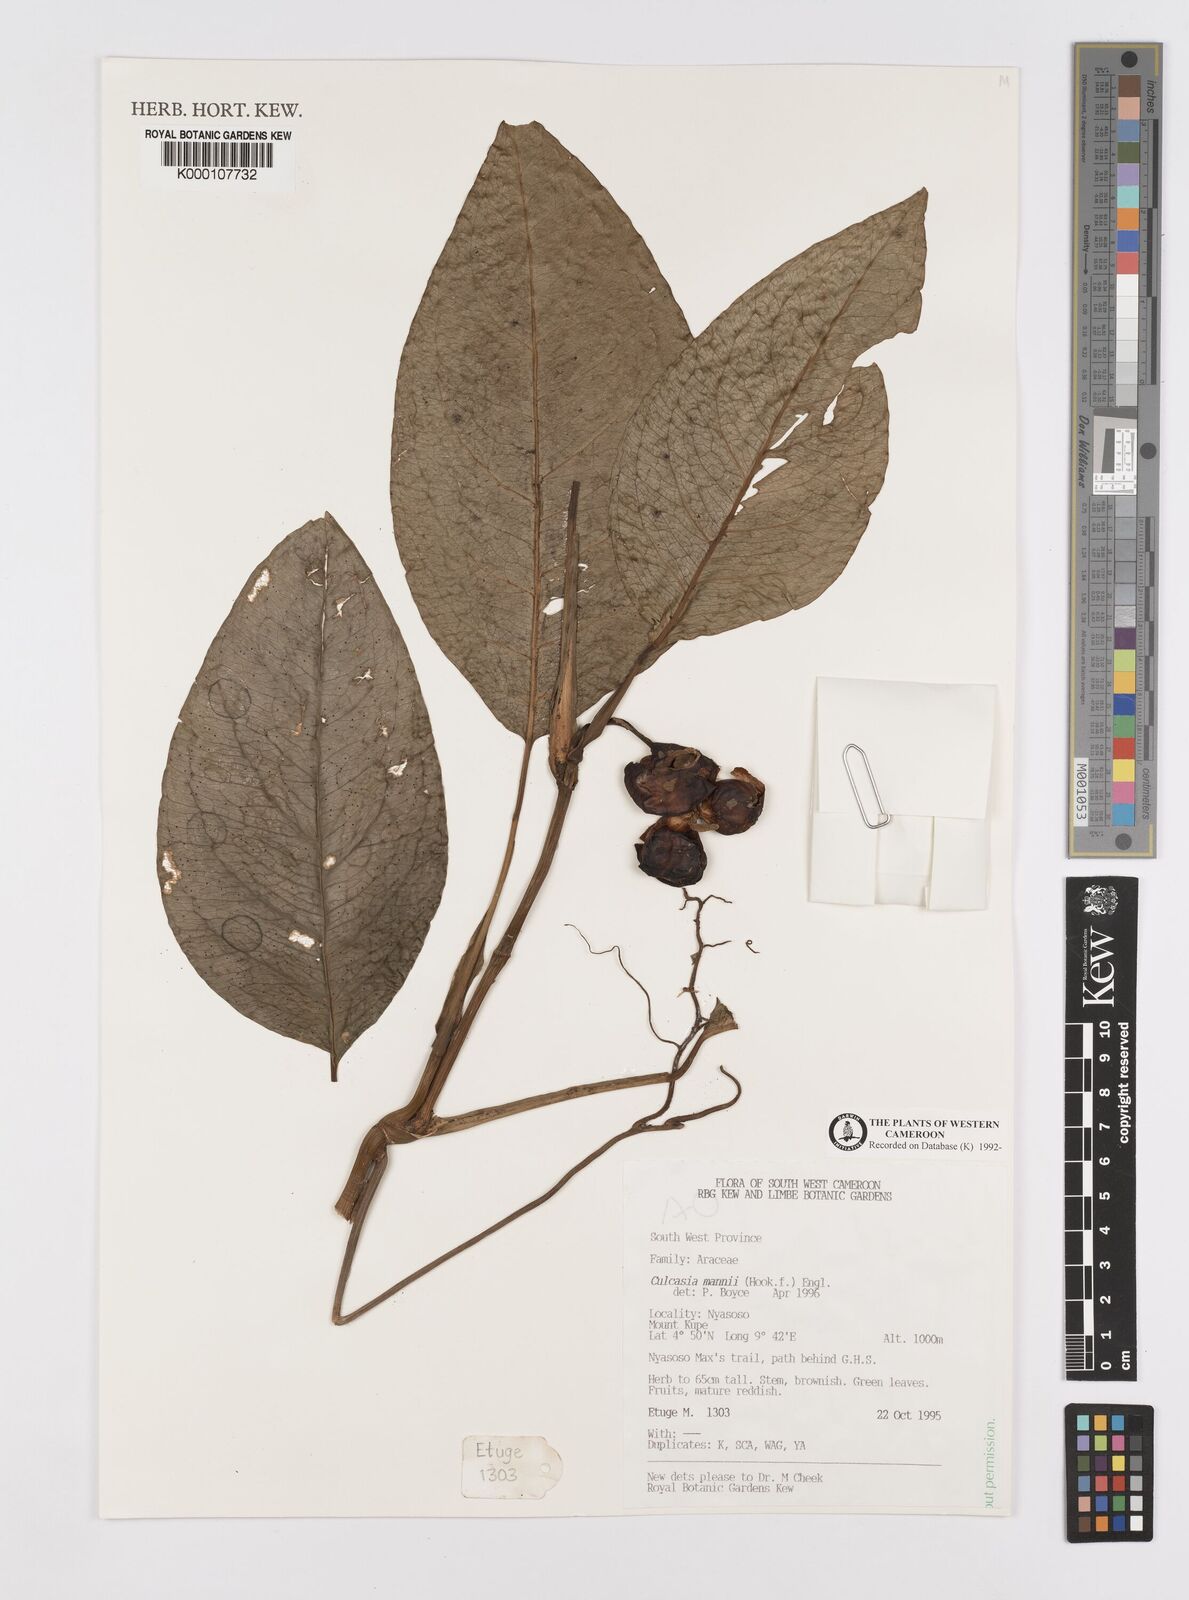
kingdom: Plantae
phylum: Tracheophyta
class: Liliopsida
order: Alismatales
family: Araceae
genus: Culcasia
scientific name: Culcasia mannii
